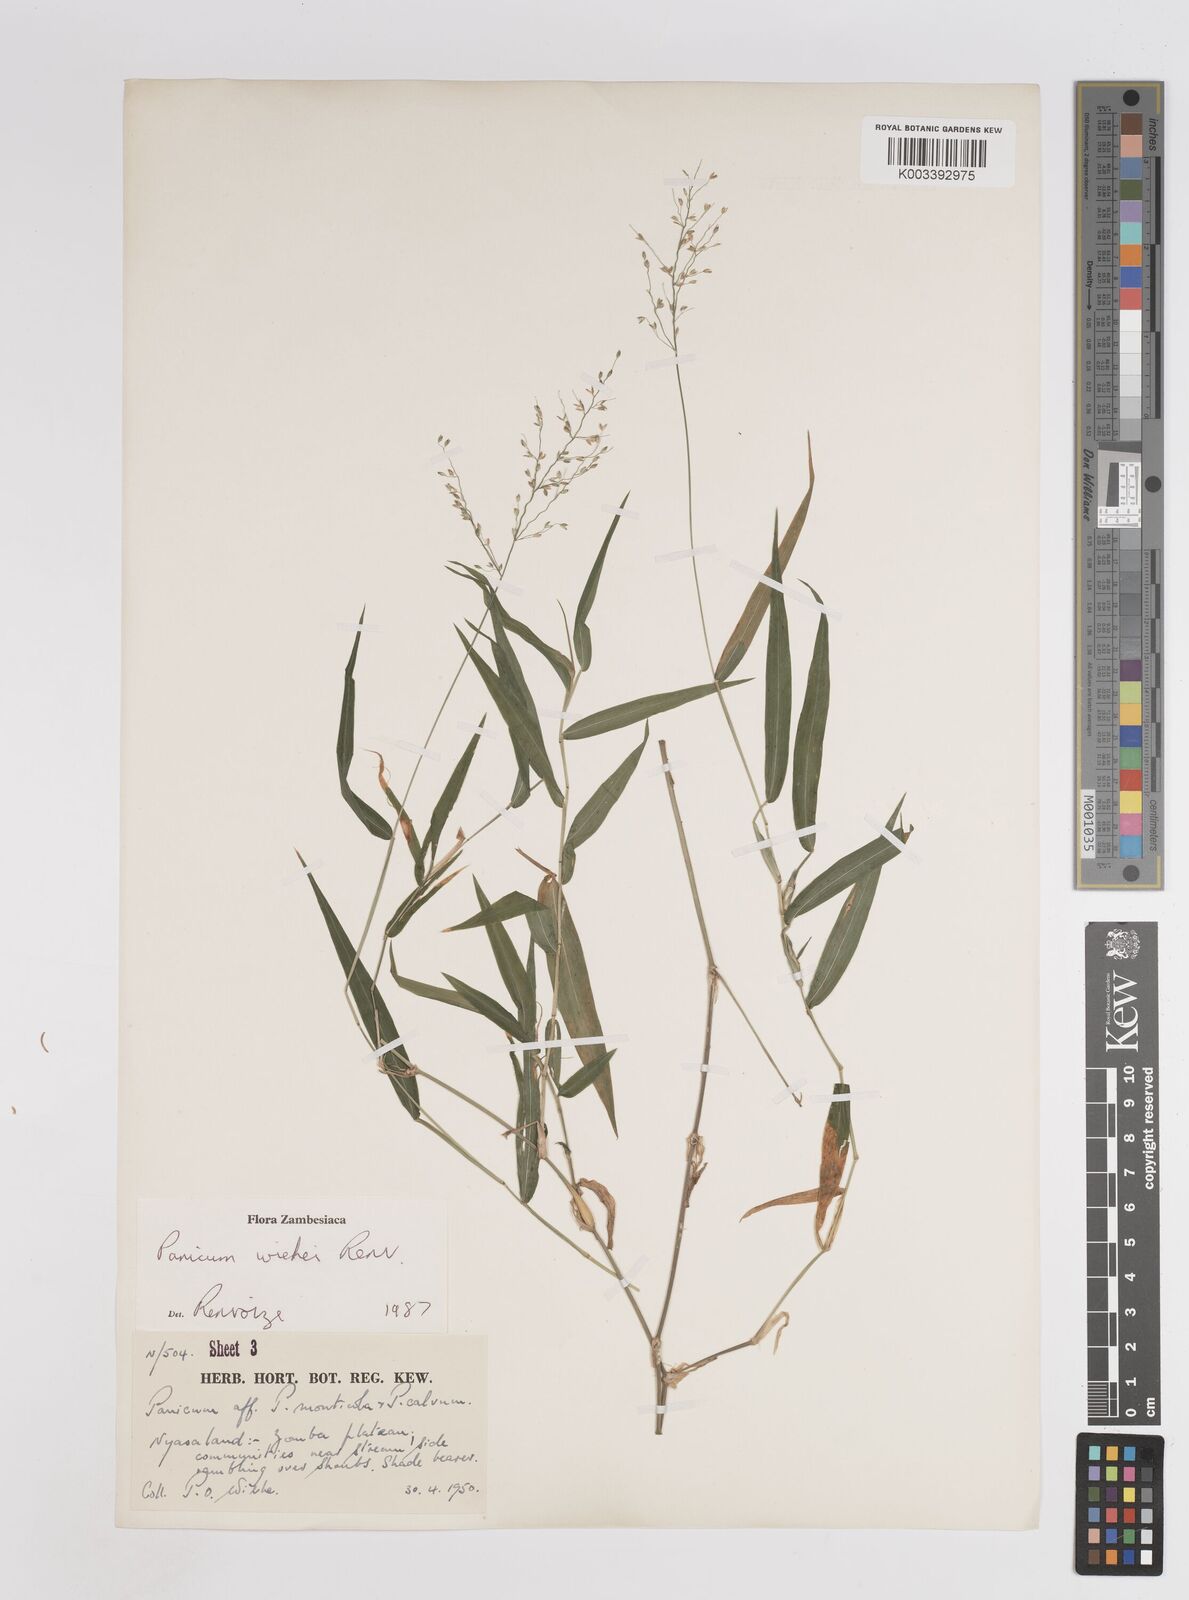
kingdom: Plantae
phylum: Tracheophyta
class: Liliopsida
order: Poales
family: Poaceae
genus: Panicum
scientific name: Panicum wiehei
